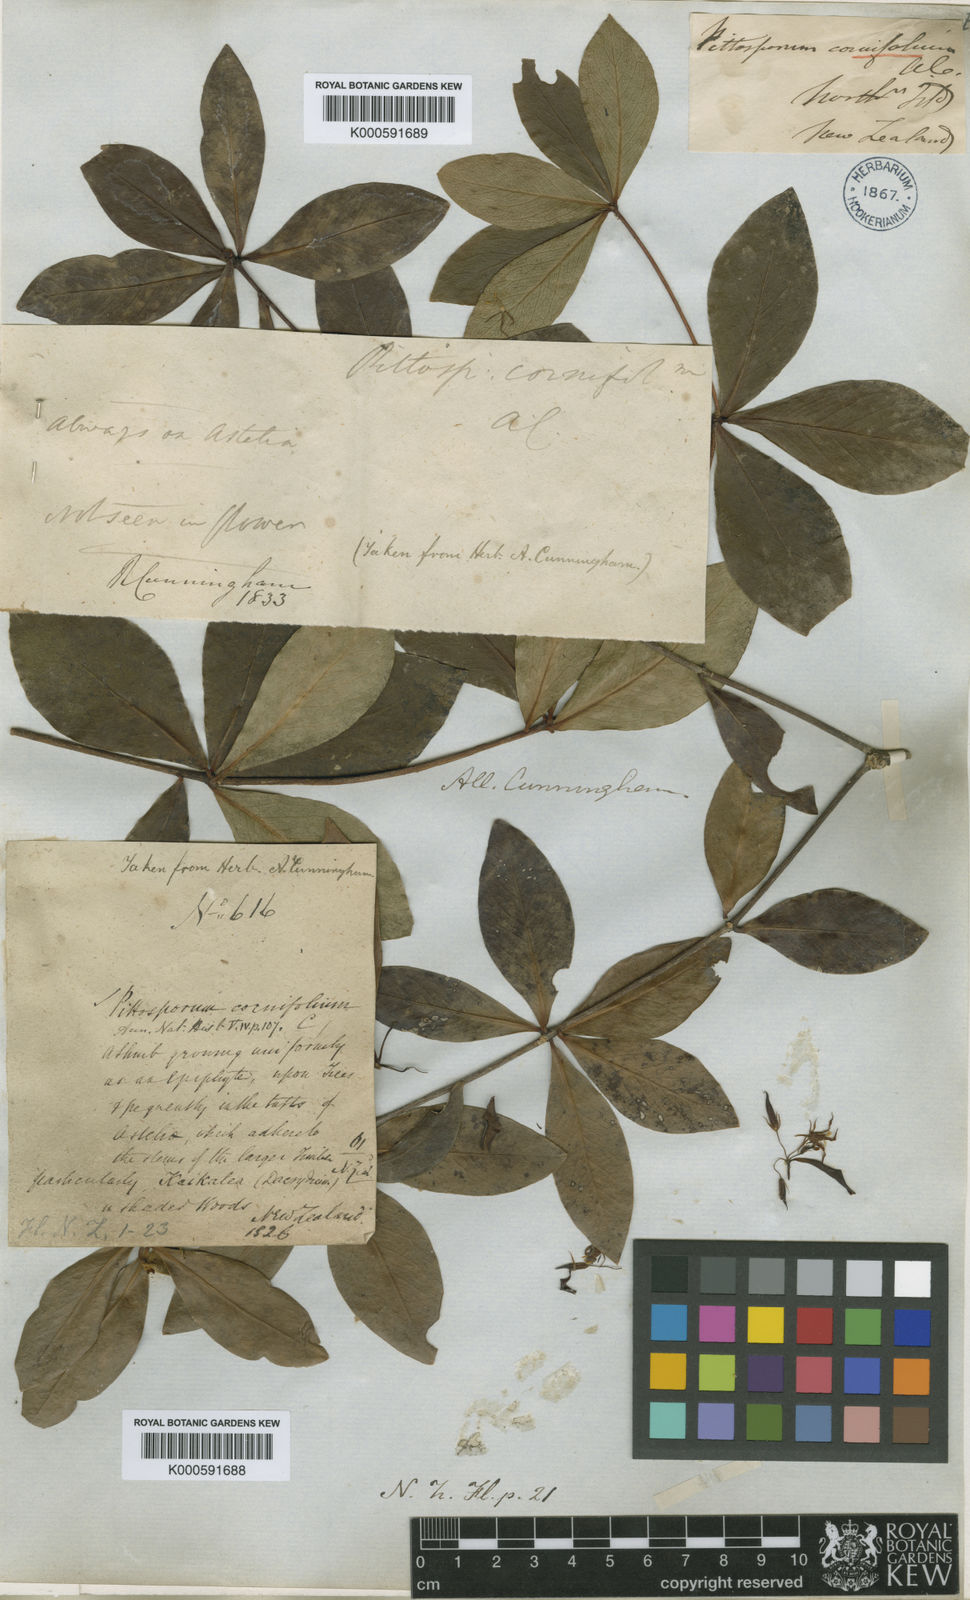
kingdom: Plantae
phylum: Tracheophyta
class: Magnoliopsida
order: Apiales
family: Pittosporaceae
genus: Pittosporum
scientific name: Pittosporum cornifolium
